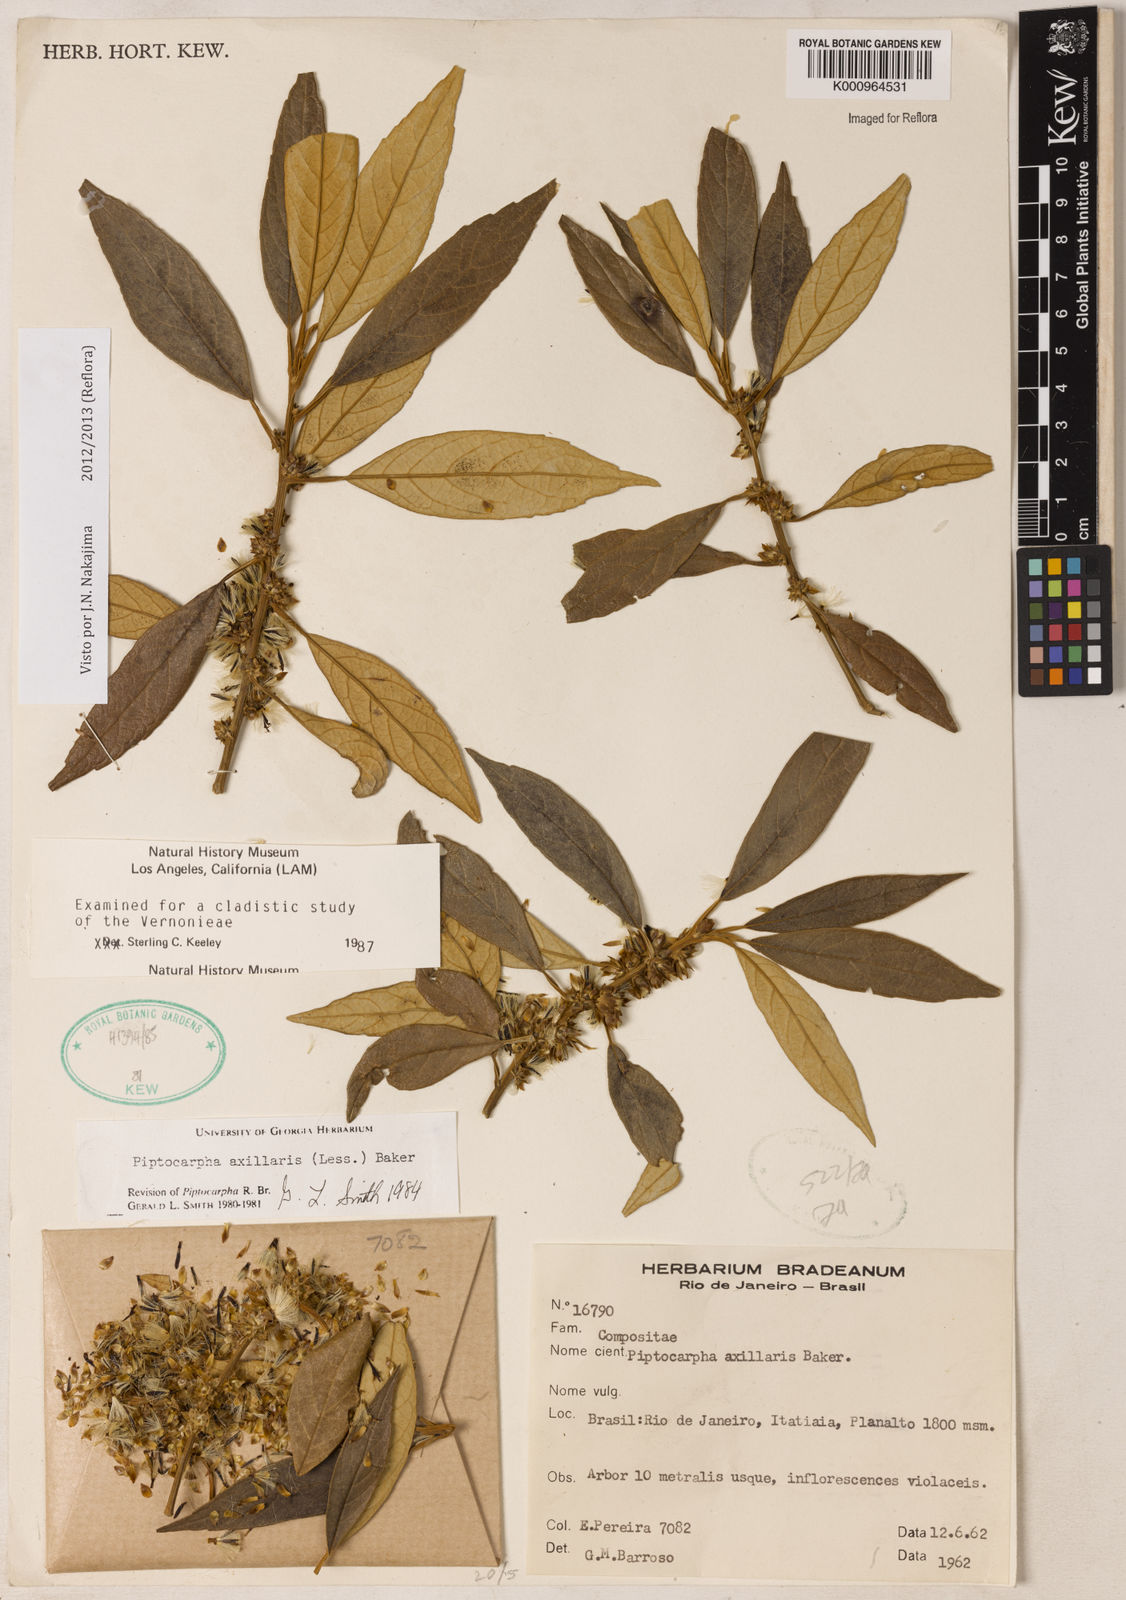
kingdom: Plantae
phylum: Tracheophyta
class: Magnoliopsida
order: Asterales
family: Asteraceae
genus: Piptocarpha
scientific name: Piptocarpha axillaris
